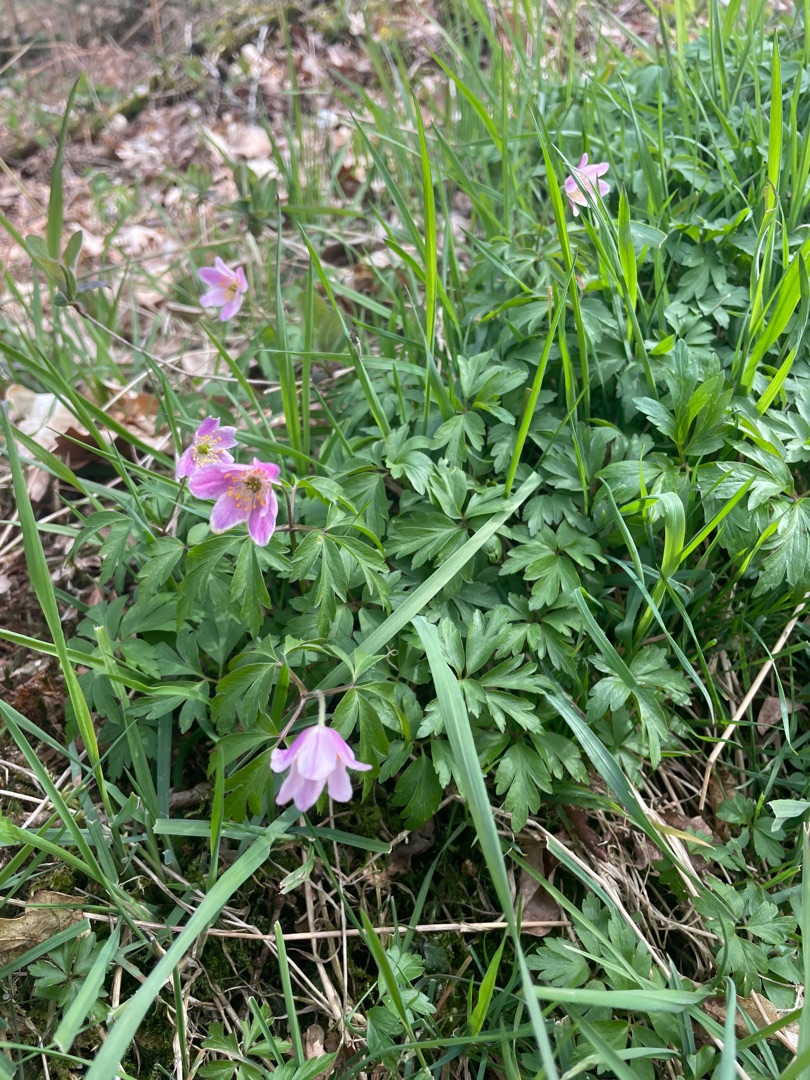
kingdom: Plantae
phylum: Tracheophyta
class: Magnoliopsida
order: Ranunculales
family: Ranunculaceae
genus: Anemone
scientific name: Anemone nemorosa
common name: Hvid anemone
